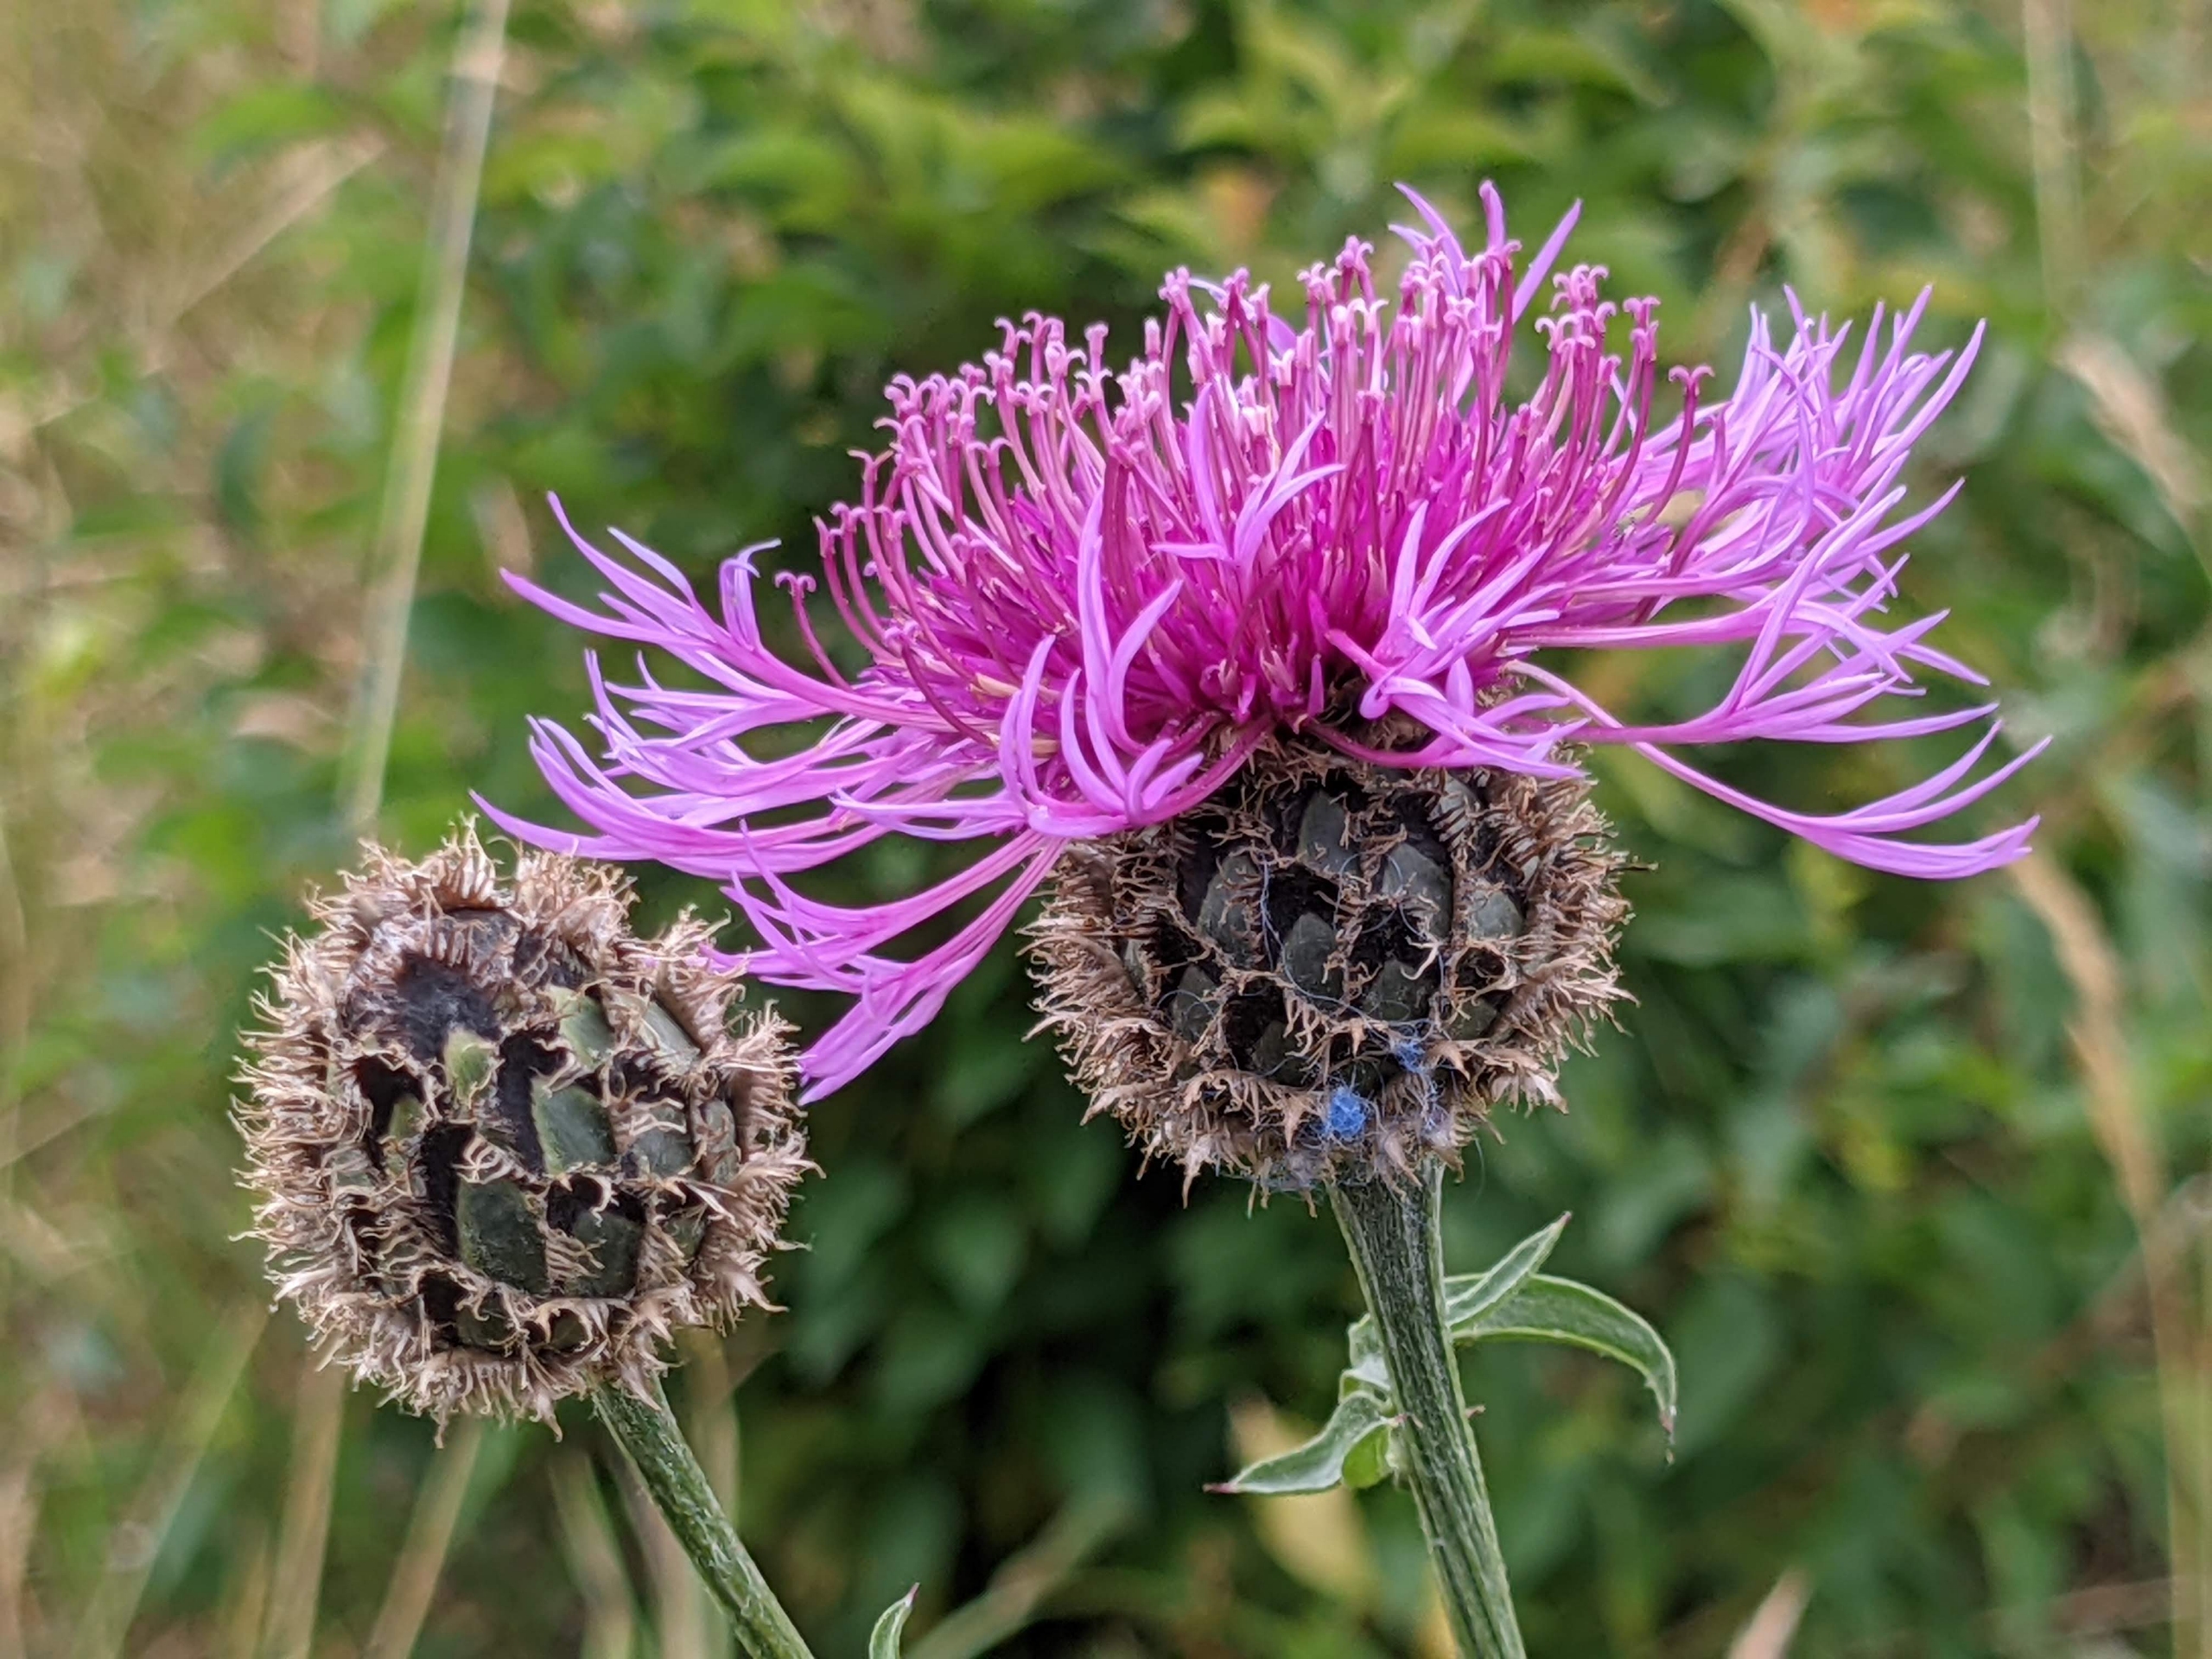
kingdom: Plantae
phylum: Tracheophyta
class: Magnoliopsida
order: Asterales
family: Asteraceae
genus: Centaurea
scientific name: Centaurea scabiosa
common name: Stor knopurt
